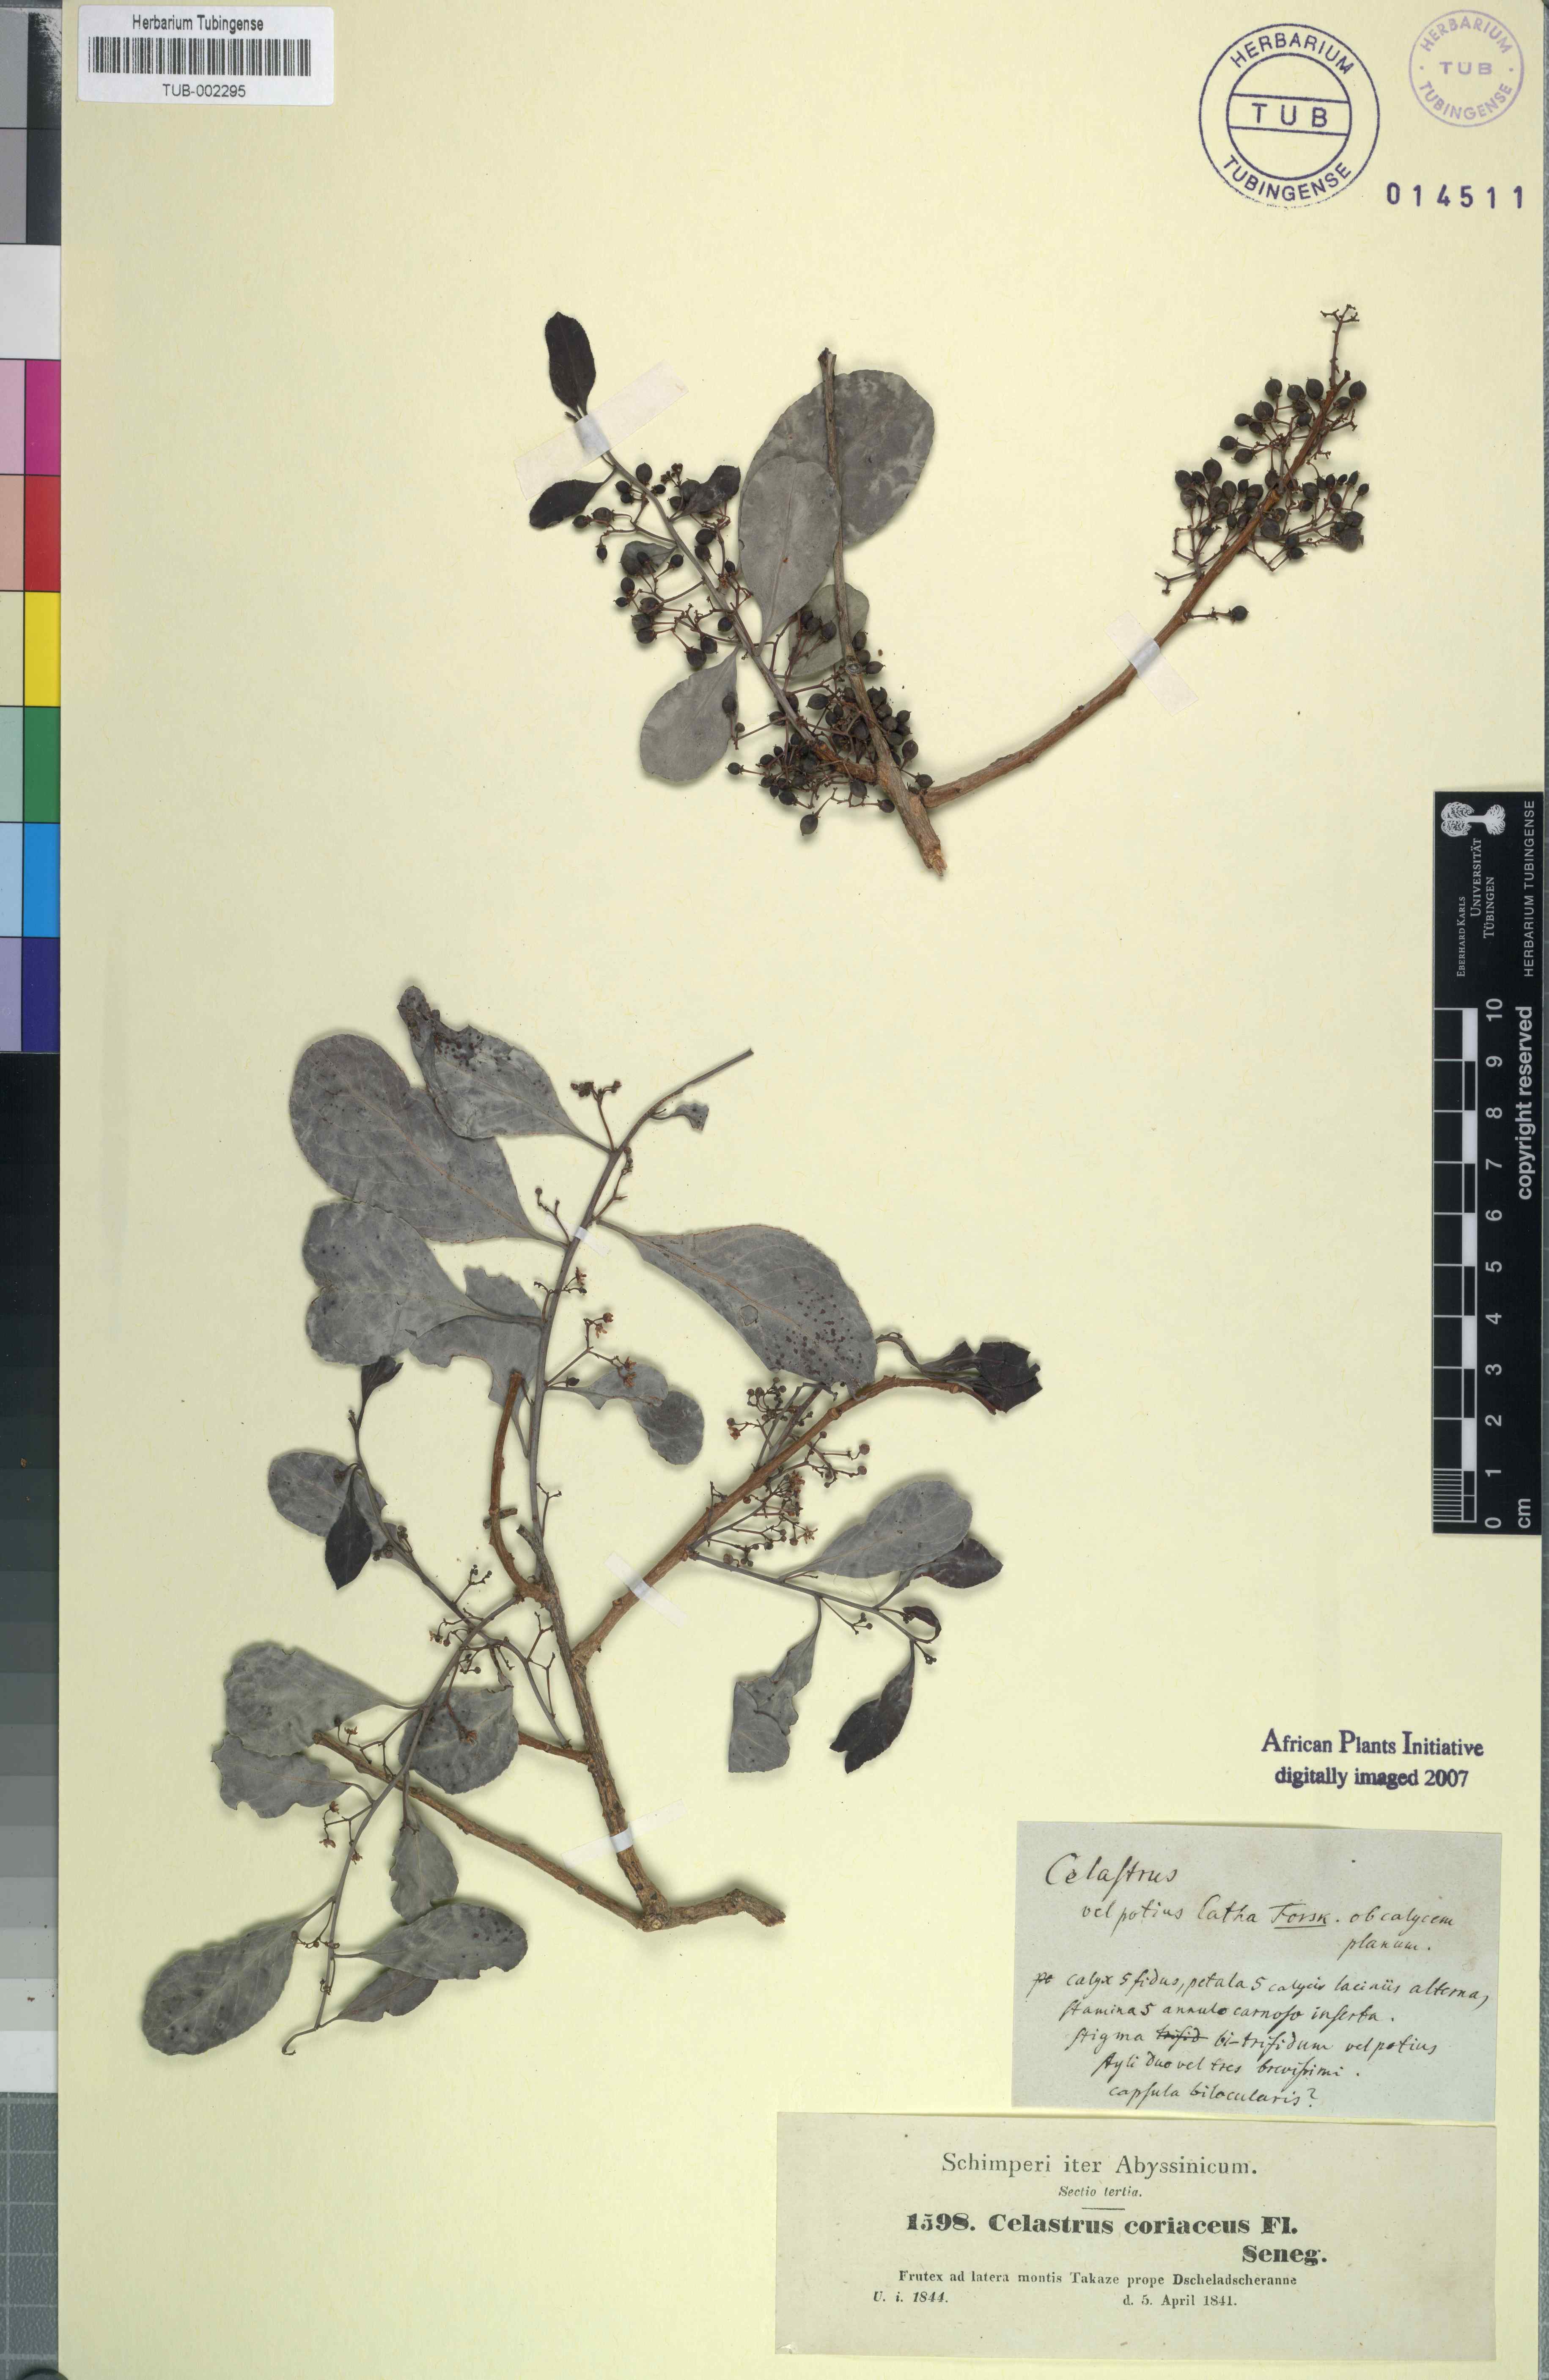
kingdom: Plantae
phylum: Tracheophyta
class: Magnoliopsida
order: Celastrales
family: Celastraceae
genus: Gymnosporia
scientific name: Gymnosporia senegalensis
